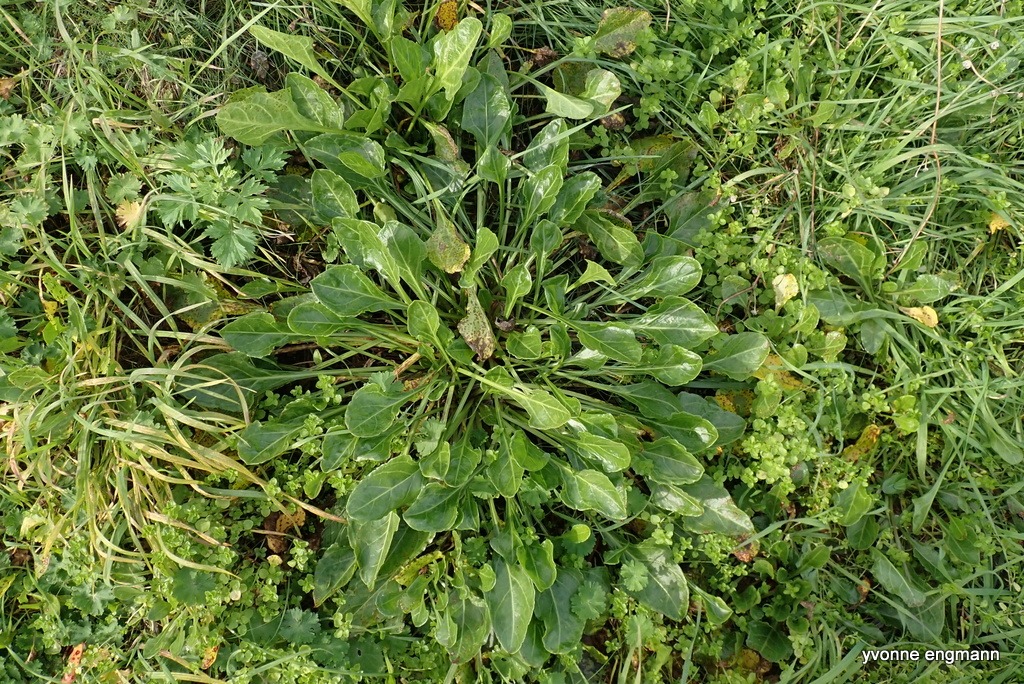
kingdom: Plantae
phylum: Tracheophyta
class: Magnoliopsida
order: Caryophyllales
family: Amaranthaceae
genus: Beta
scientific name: Beta maritima
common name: Strand-bede
